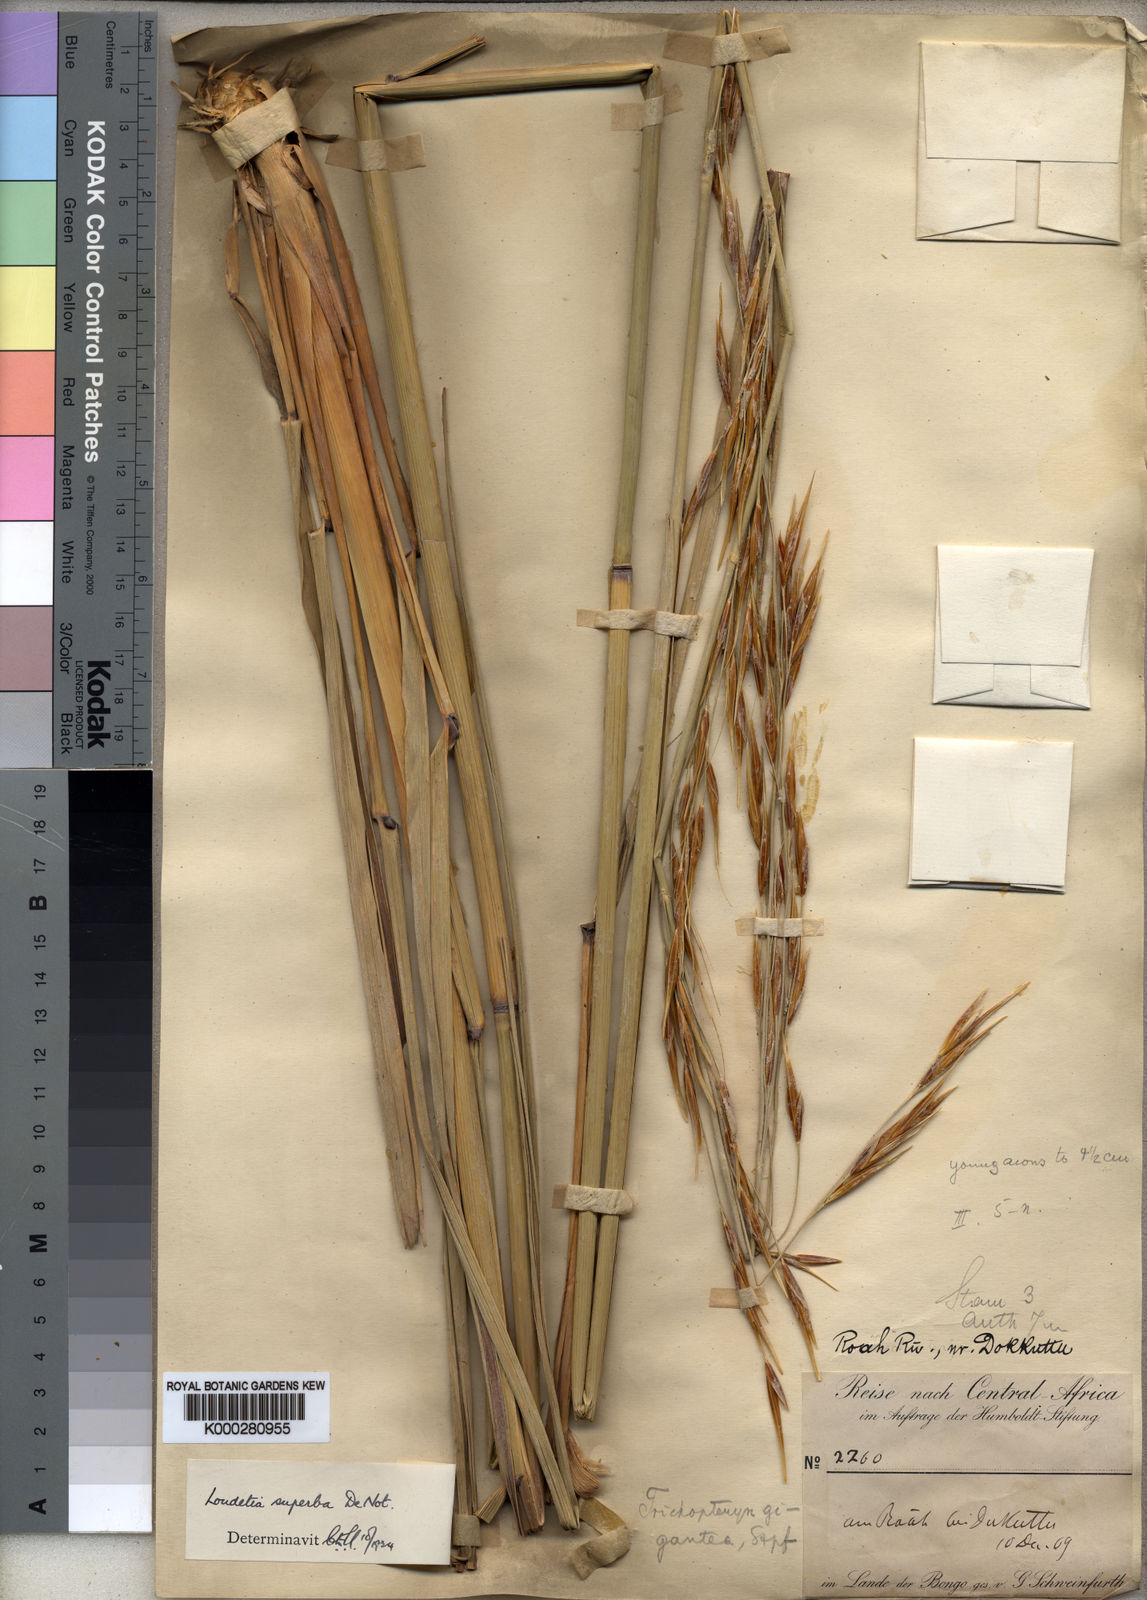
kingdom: Plantae
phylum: Tracheophyta
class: Liliopsida
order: Poales
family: Poaceae
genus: Tristachya
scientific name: Tristachya superba
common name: Giant trident grass
